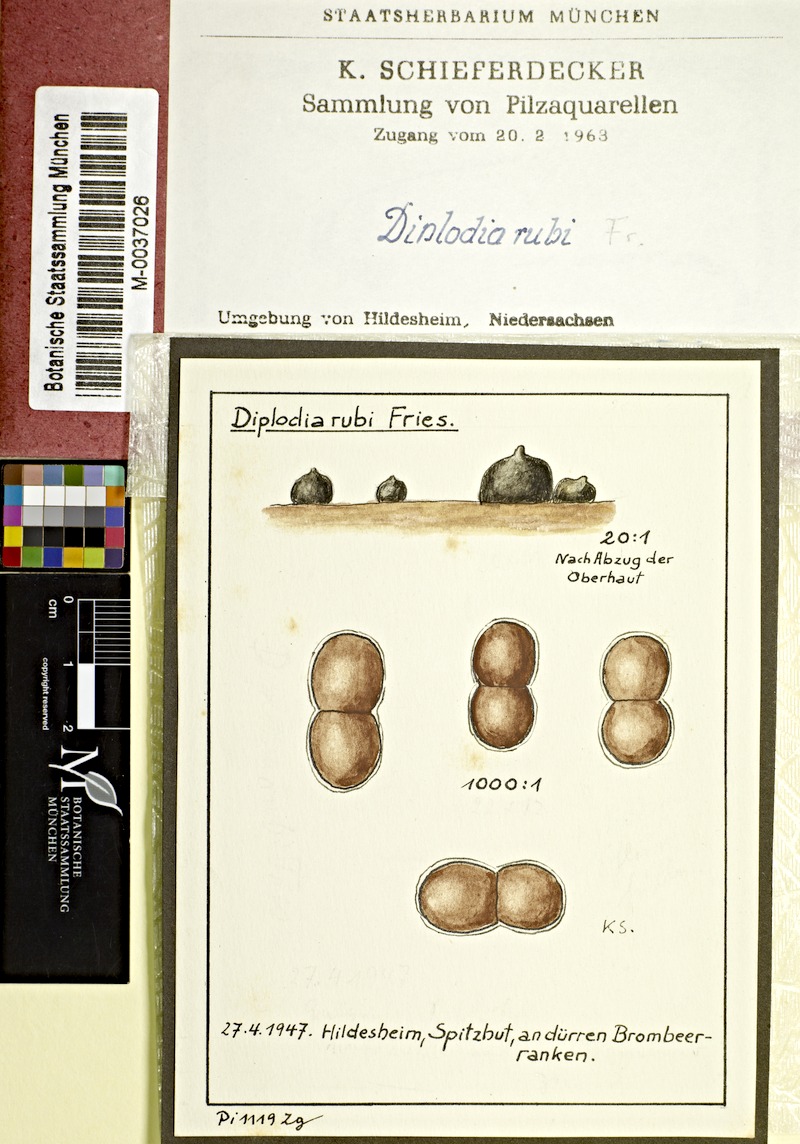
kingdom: Plantae
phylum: Tracheophyta
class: Magnoliopsida
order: Rosales
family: Rosaceae
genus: Rubus
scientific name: Rubus
